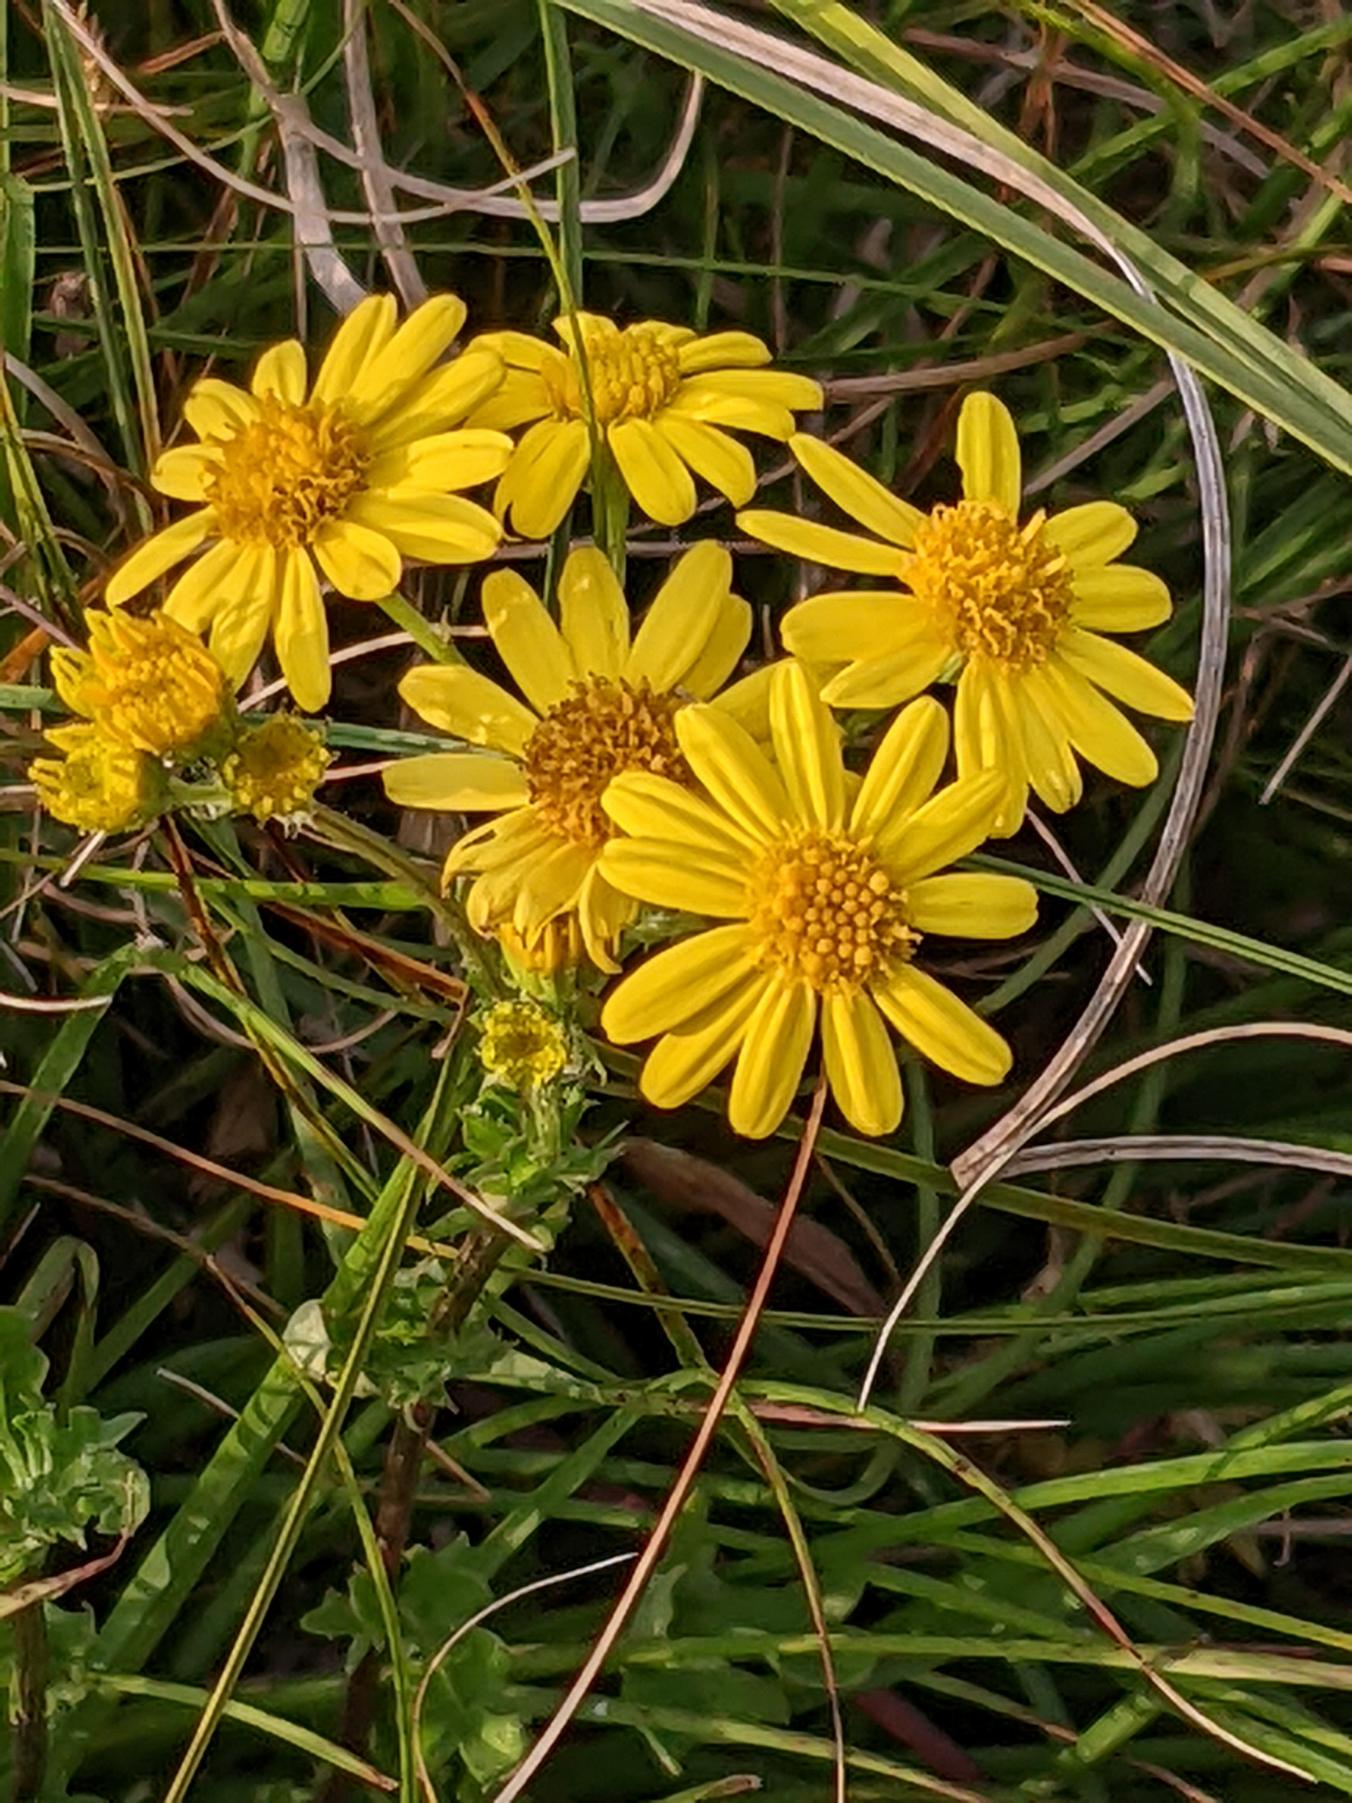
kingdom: Plantae
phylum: Tracheophyta
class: Magnoliopsida
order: Asterales
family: Asteraceae
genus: Jacobaea
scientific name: Jacobaea vulgaris
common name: Eng-brandbæger
